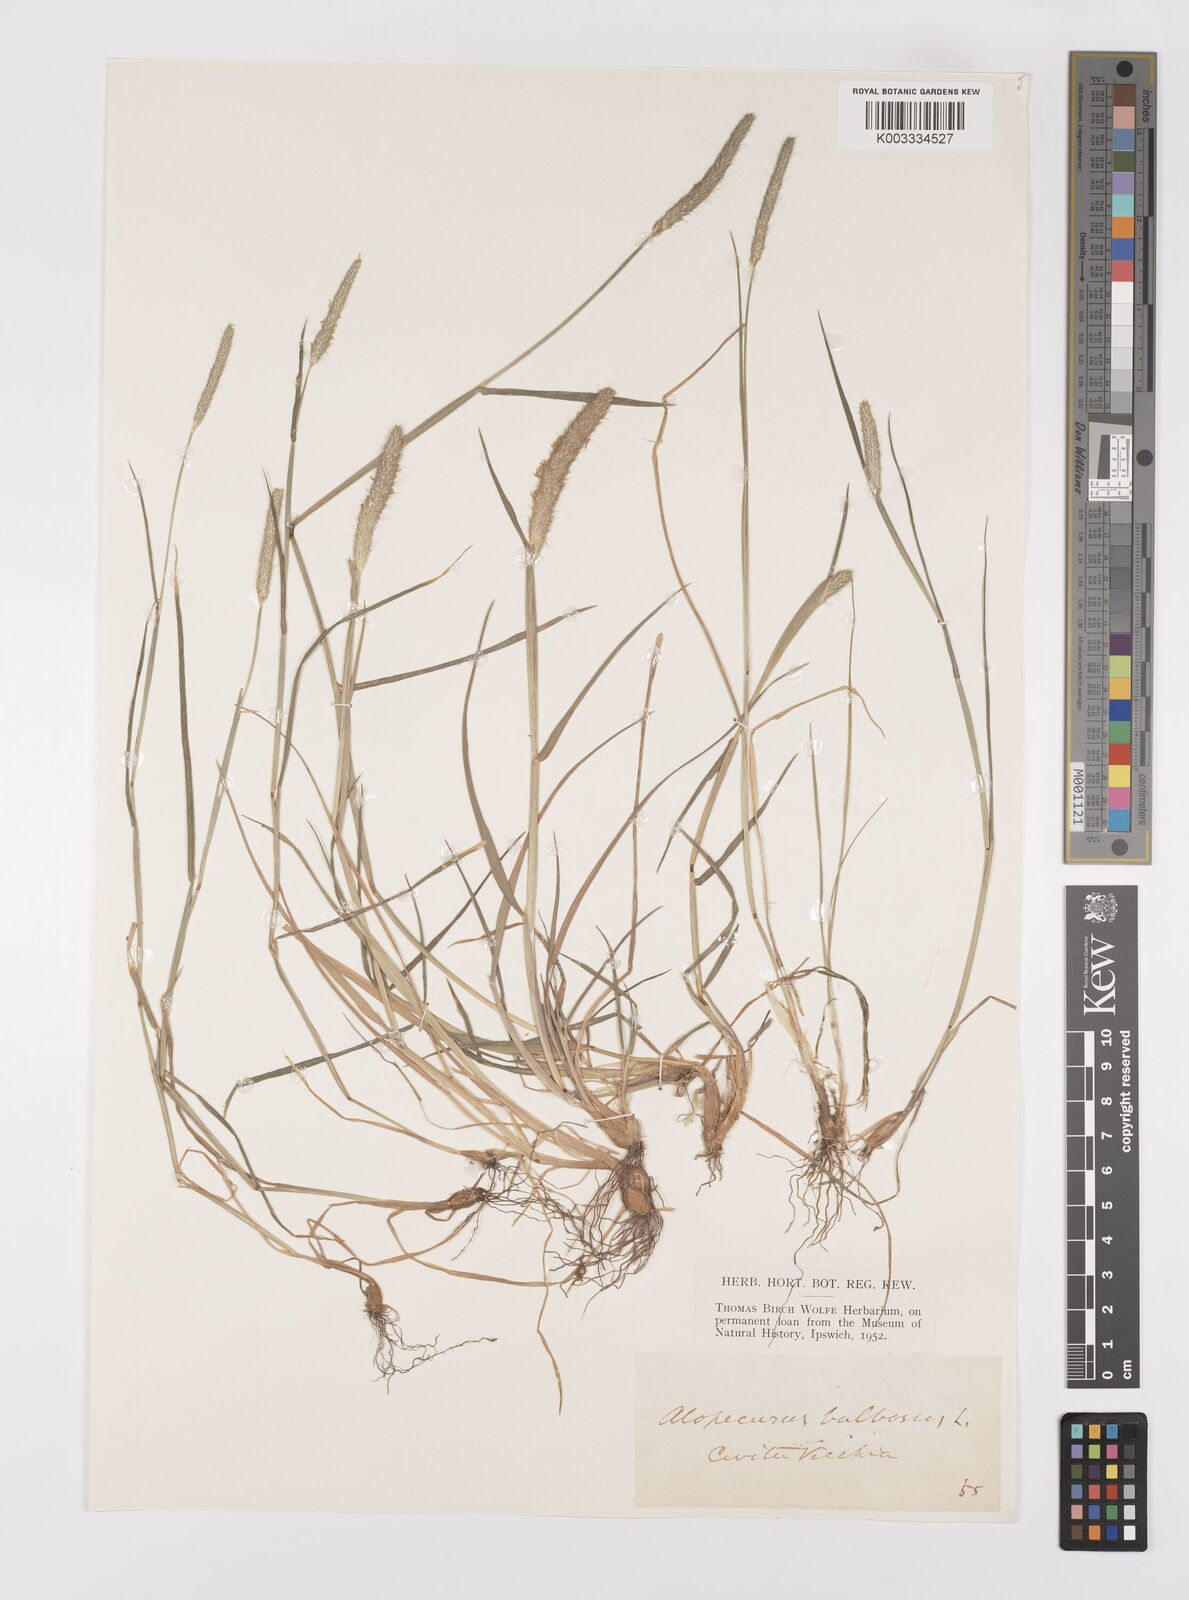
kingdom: Plantae
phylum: Tracheophyta
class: Liliopsida
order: Poales
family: Poaceae
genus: Alopecurus
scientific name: Alopecurus bulbosus
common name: Bulbous foxtail
